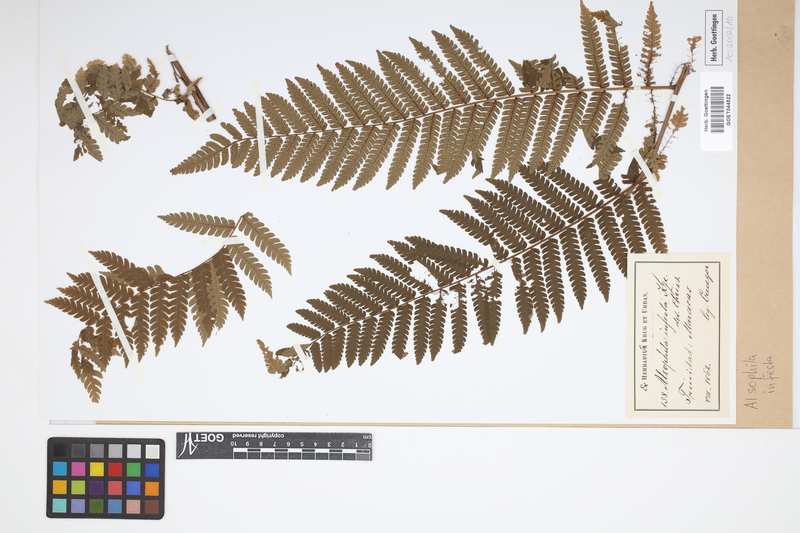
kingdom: Plantae
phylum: Tracheophyta
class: Polypodiopsida
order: Cyatheales
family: Cyatheaceae
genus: Cyathea
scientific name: Cyathea pungens
